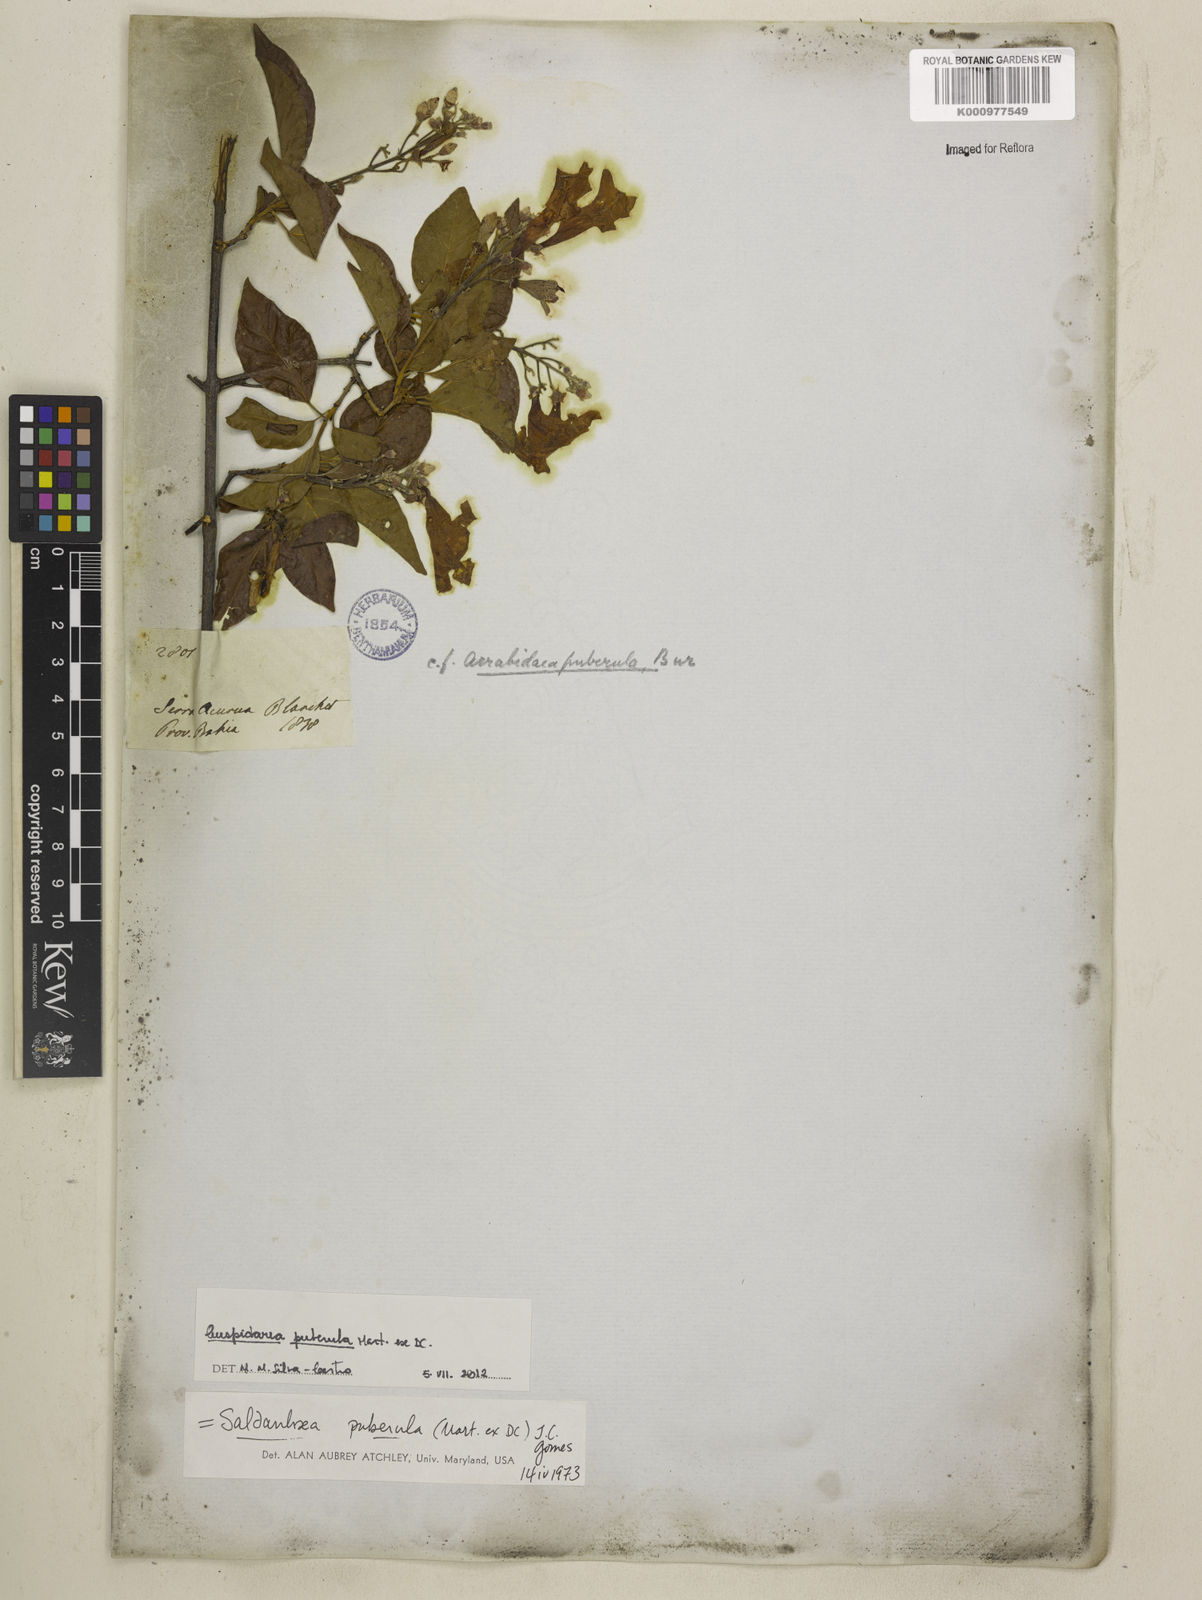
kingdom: Plantae
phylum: Tracheophyta
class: Magnoliopsida
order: Lamiales
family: Bignoniaceae
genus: Cuspidaria
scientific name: Cuspidaria simplicifolia
